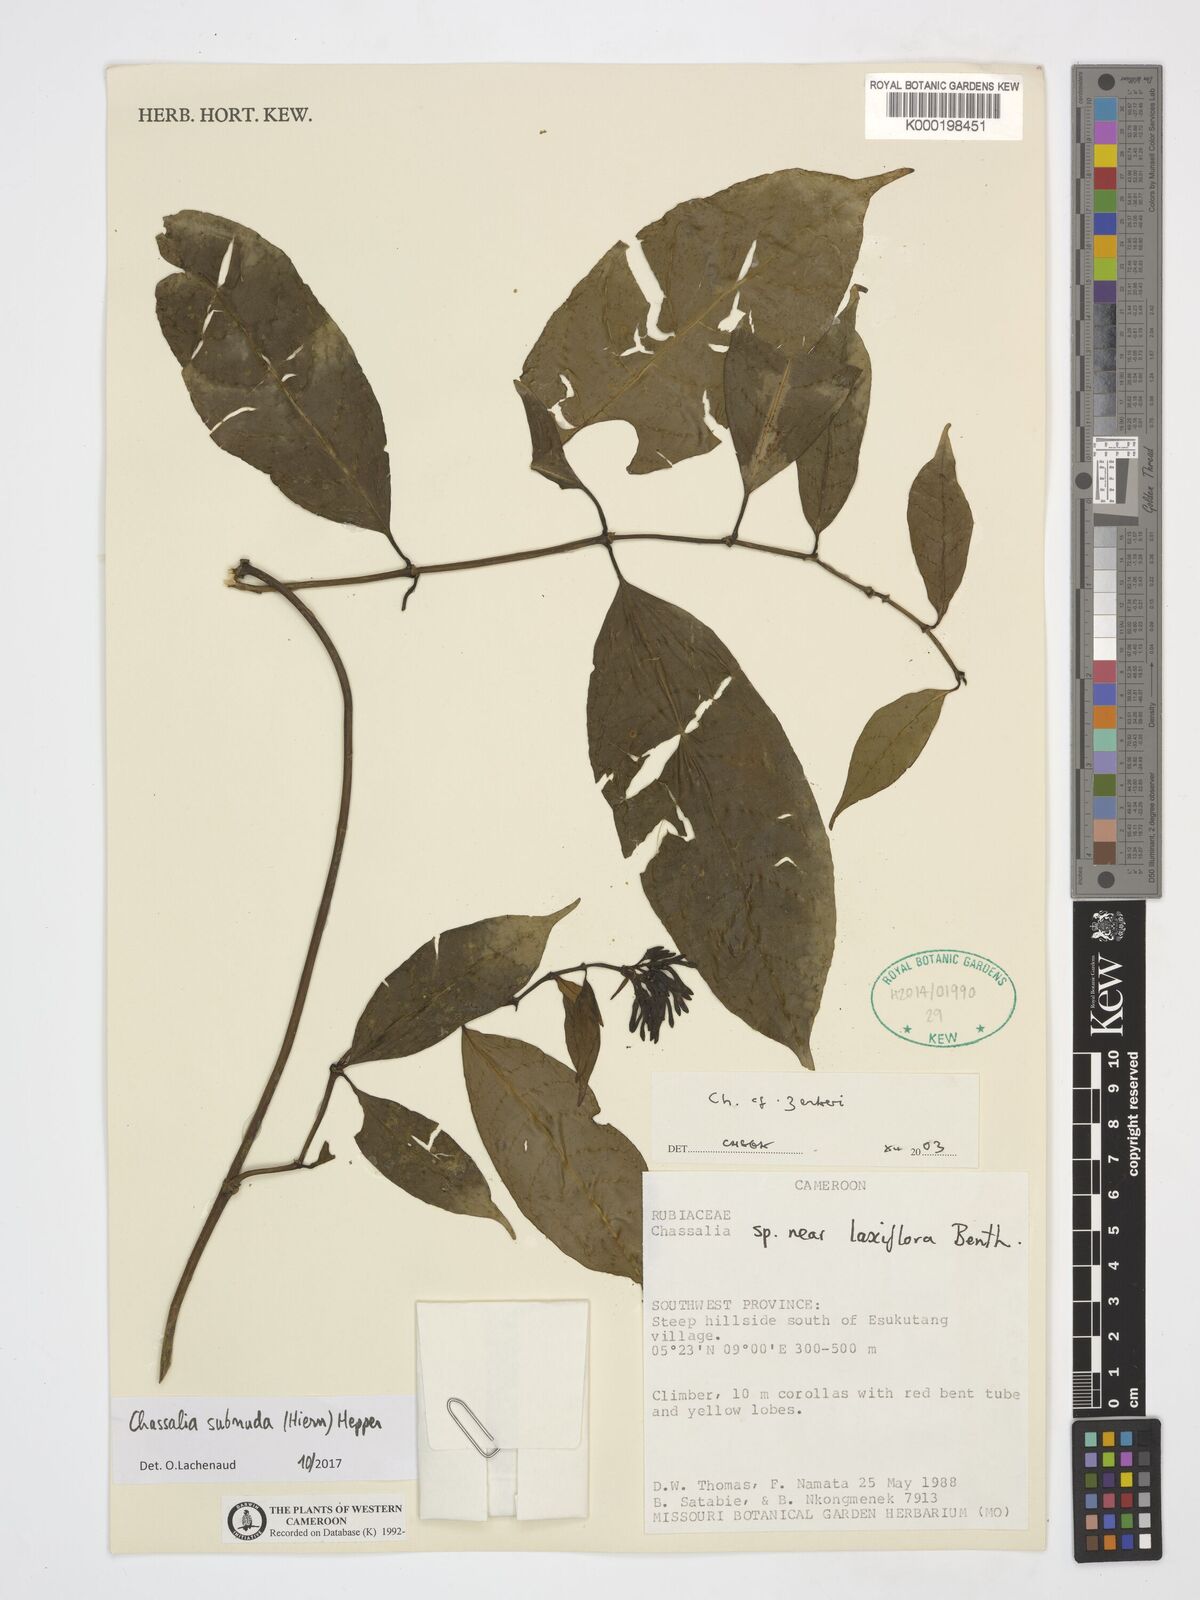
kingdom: Plantae
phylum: Tracheophyta
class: Magnoliopsida
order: Gentianales
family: Rubiaceae
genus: Chassalia
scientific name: Chassalia zenkeri
